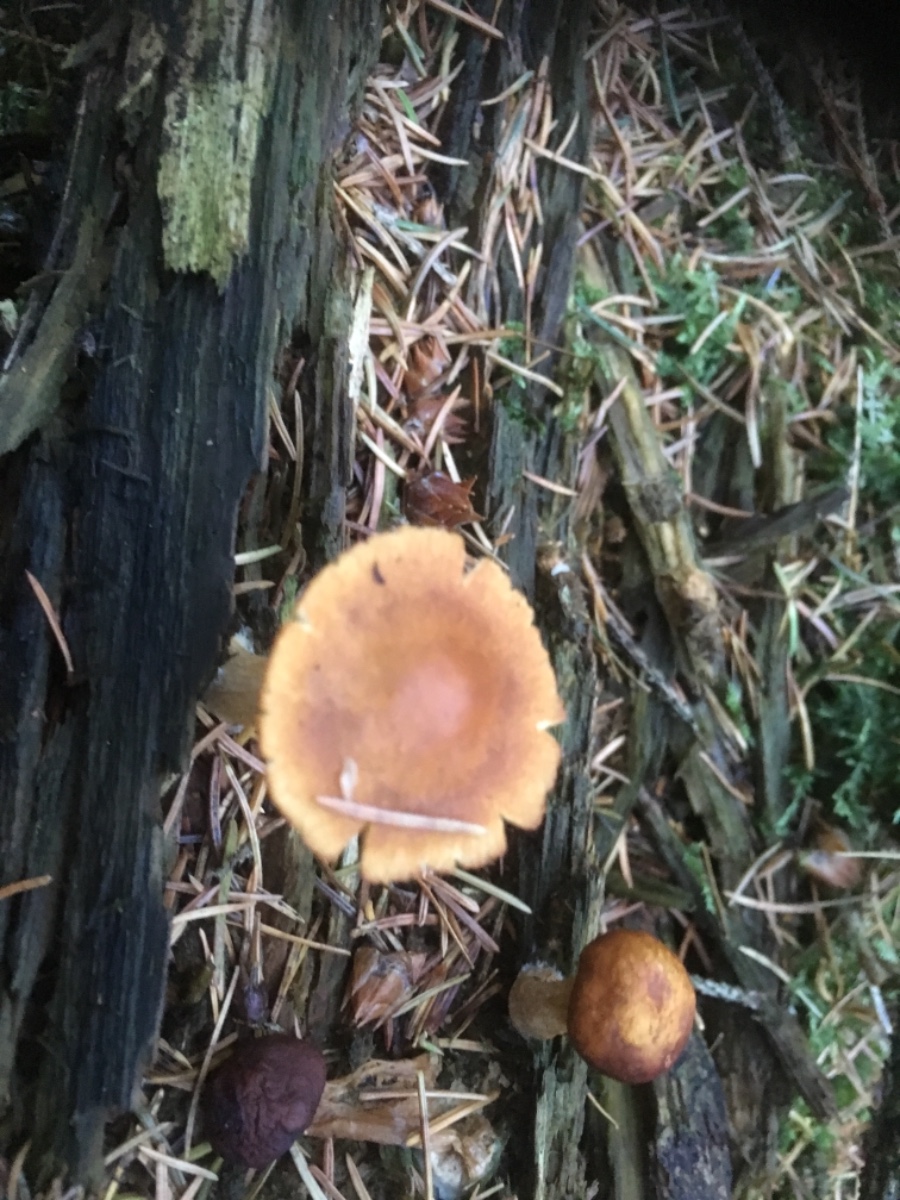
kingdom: Fungi
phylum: Basidiomycota
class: Agaricomycetes
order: Agaricales
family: Hymenogastraceae
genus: Gymnopilus
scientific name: Gymnopilus penetrans
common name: plettet flammehat
